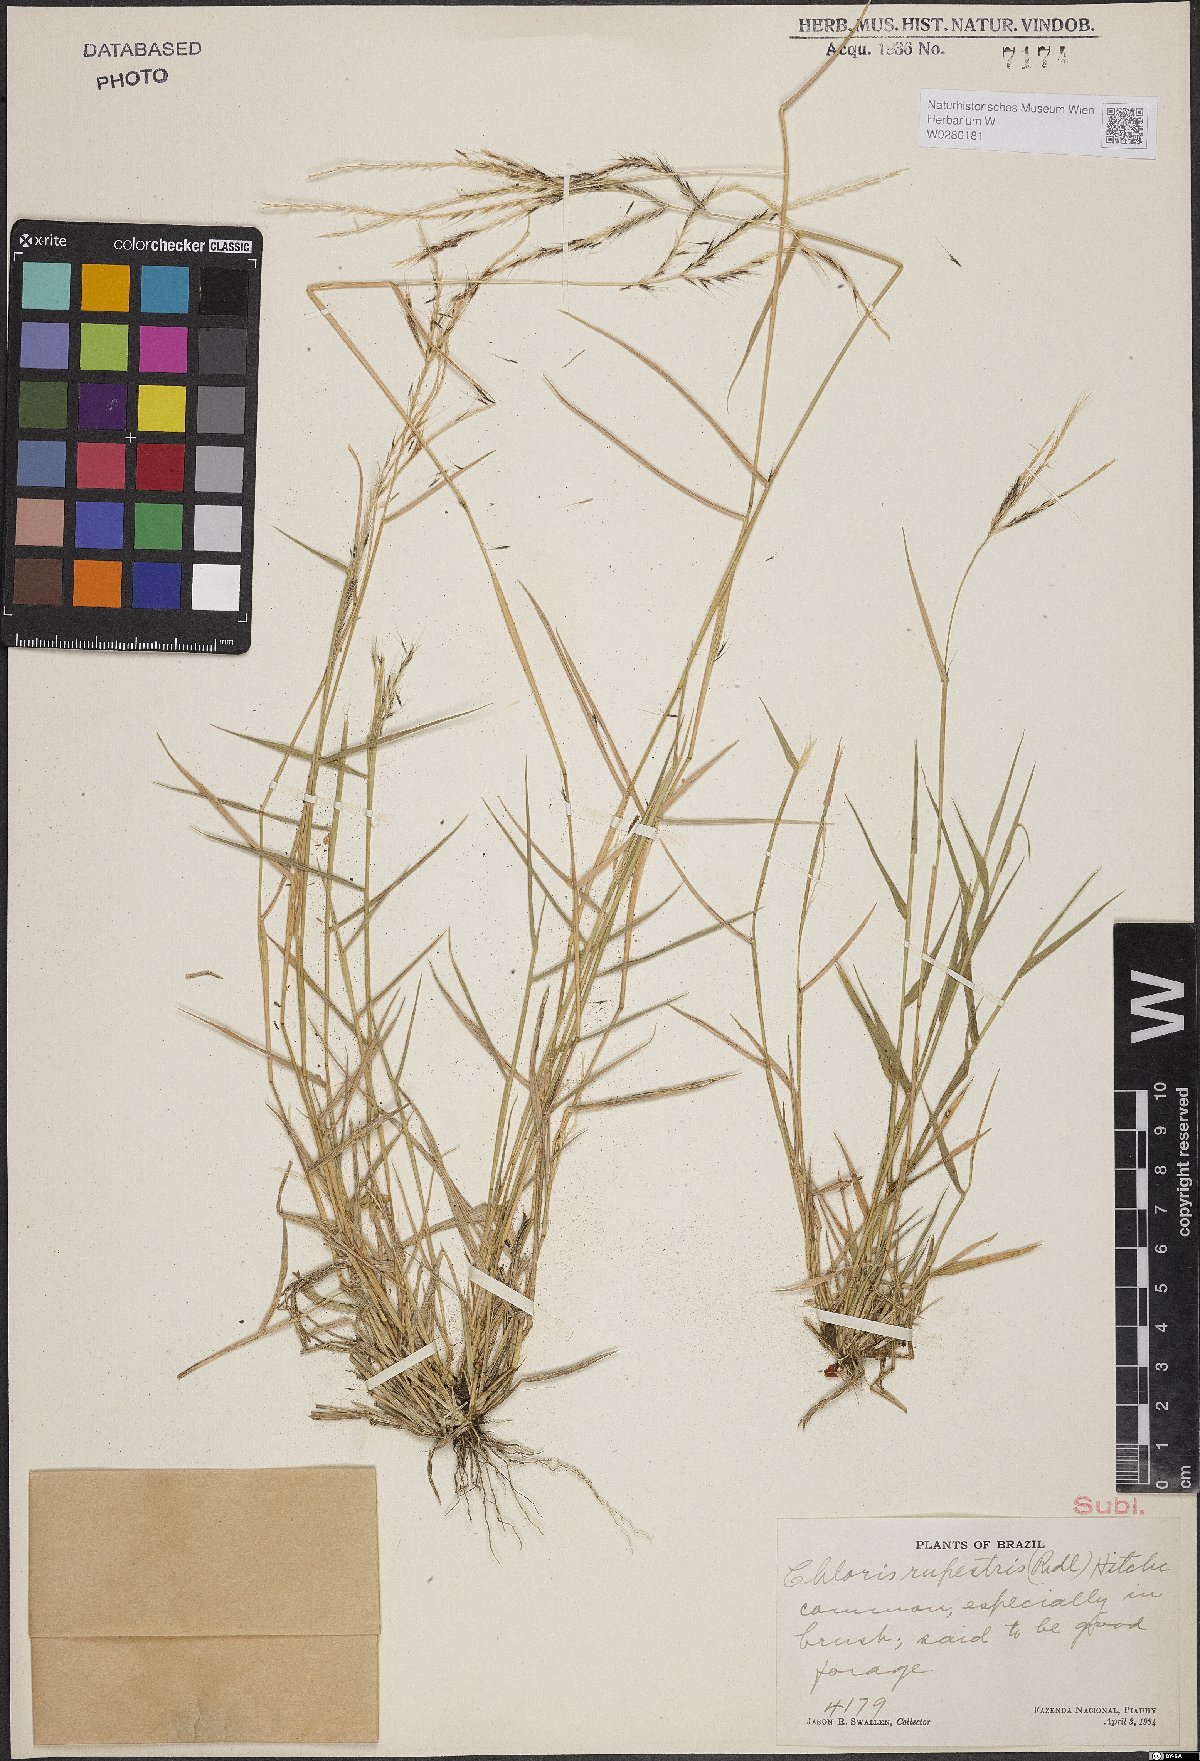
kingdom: Plantae
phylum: Tracheophyta
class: Liliopsida
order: Poales
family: Poaceae
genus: Leptochloa
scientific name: Leptochloa anisopoda
